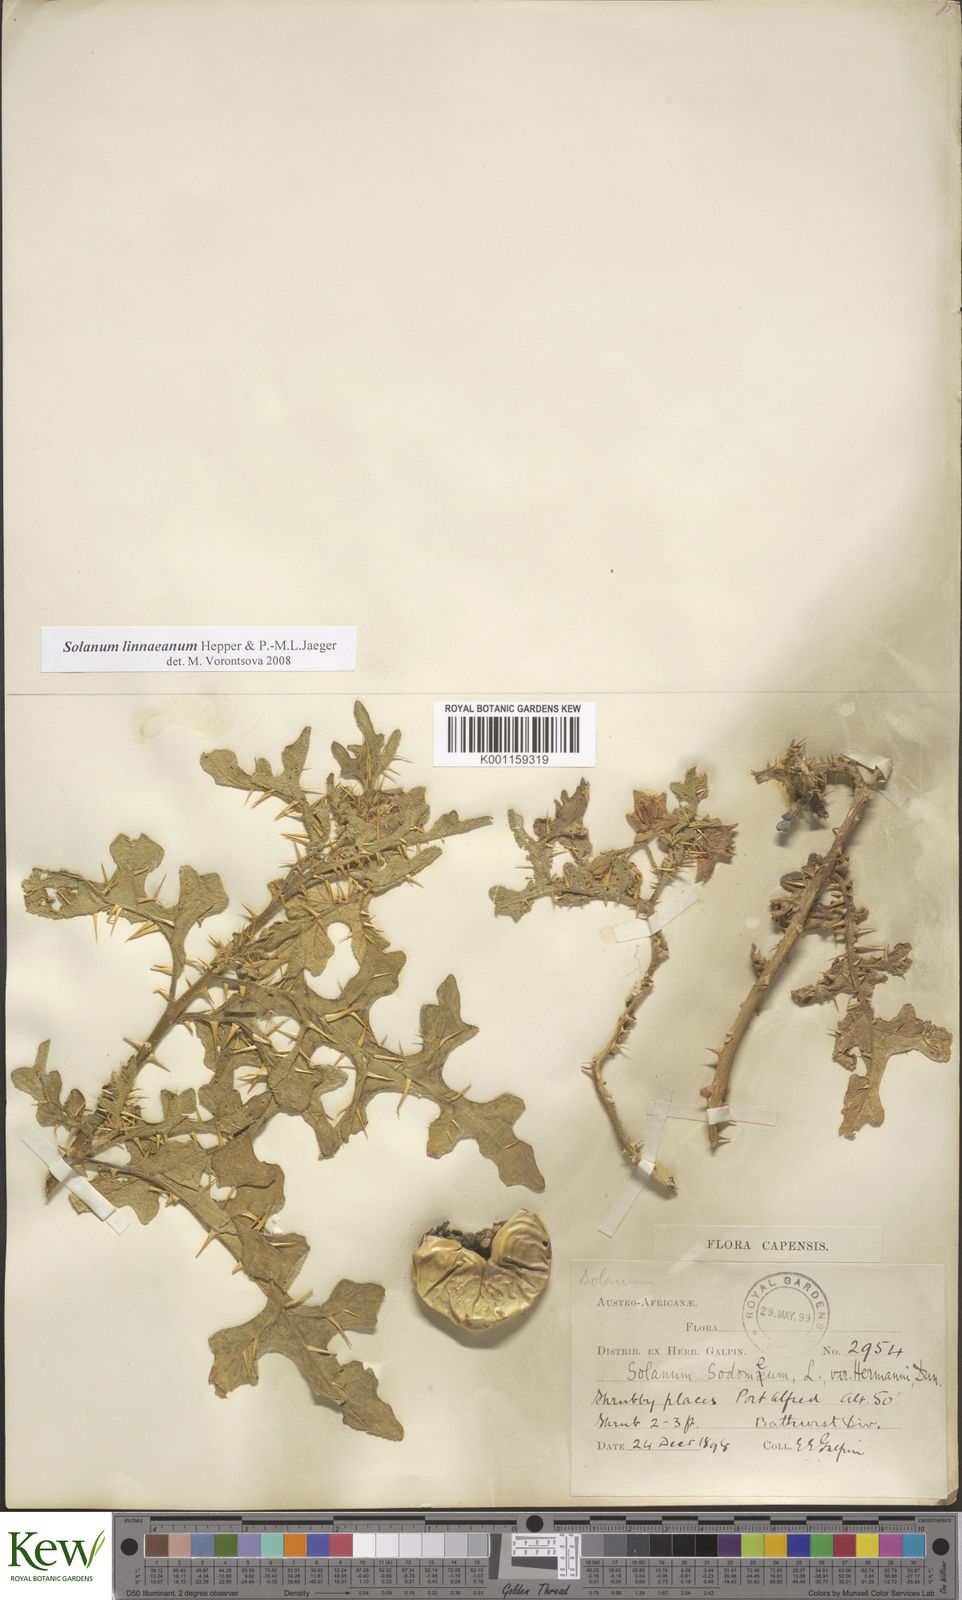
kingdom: Plantae
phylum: Tracheophyta
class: Magnoliopsida
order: Solanales
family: Solanaceae
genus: Solanum
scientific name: Solanum linnaeanum
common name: Nightshade
